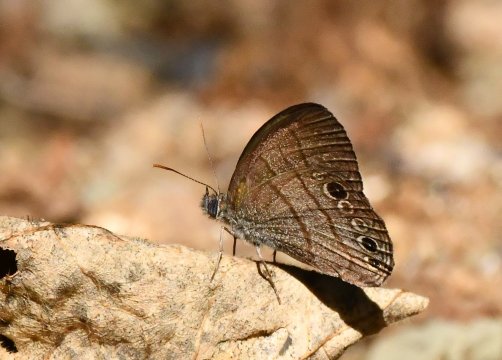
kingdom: Animalia
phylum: Arthropoda
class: Insecta
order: Lepidoptera
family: Nymphalidae
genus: Hermeuptychia
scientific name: Hermeuptychia hermes
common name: Carolina Satyr
